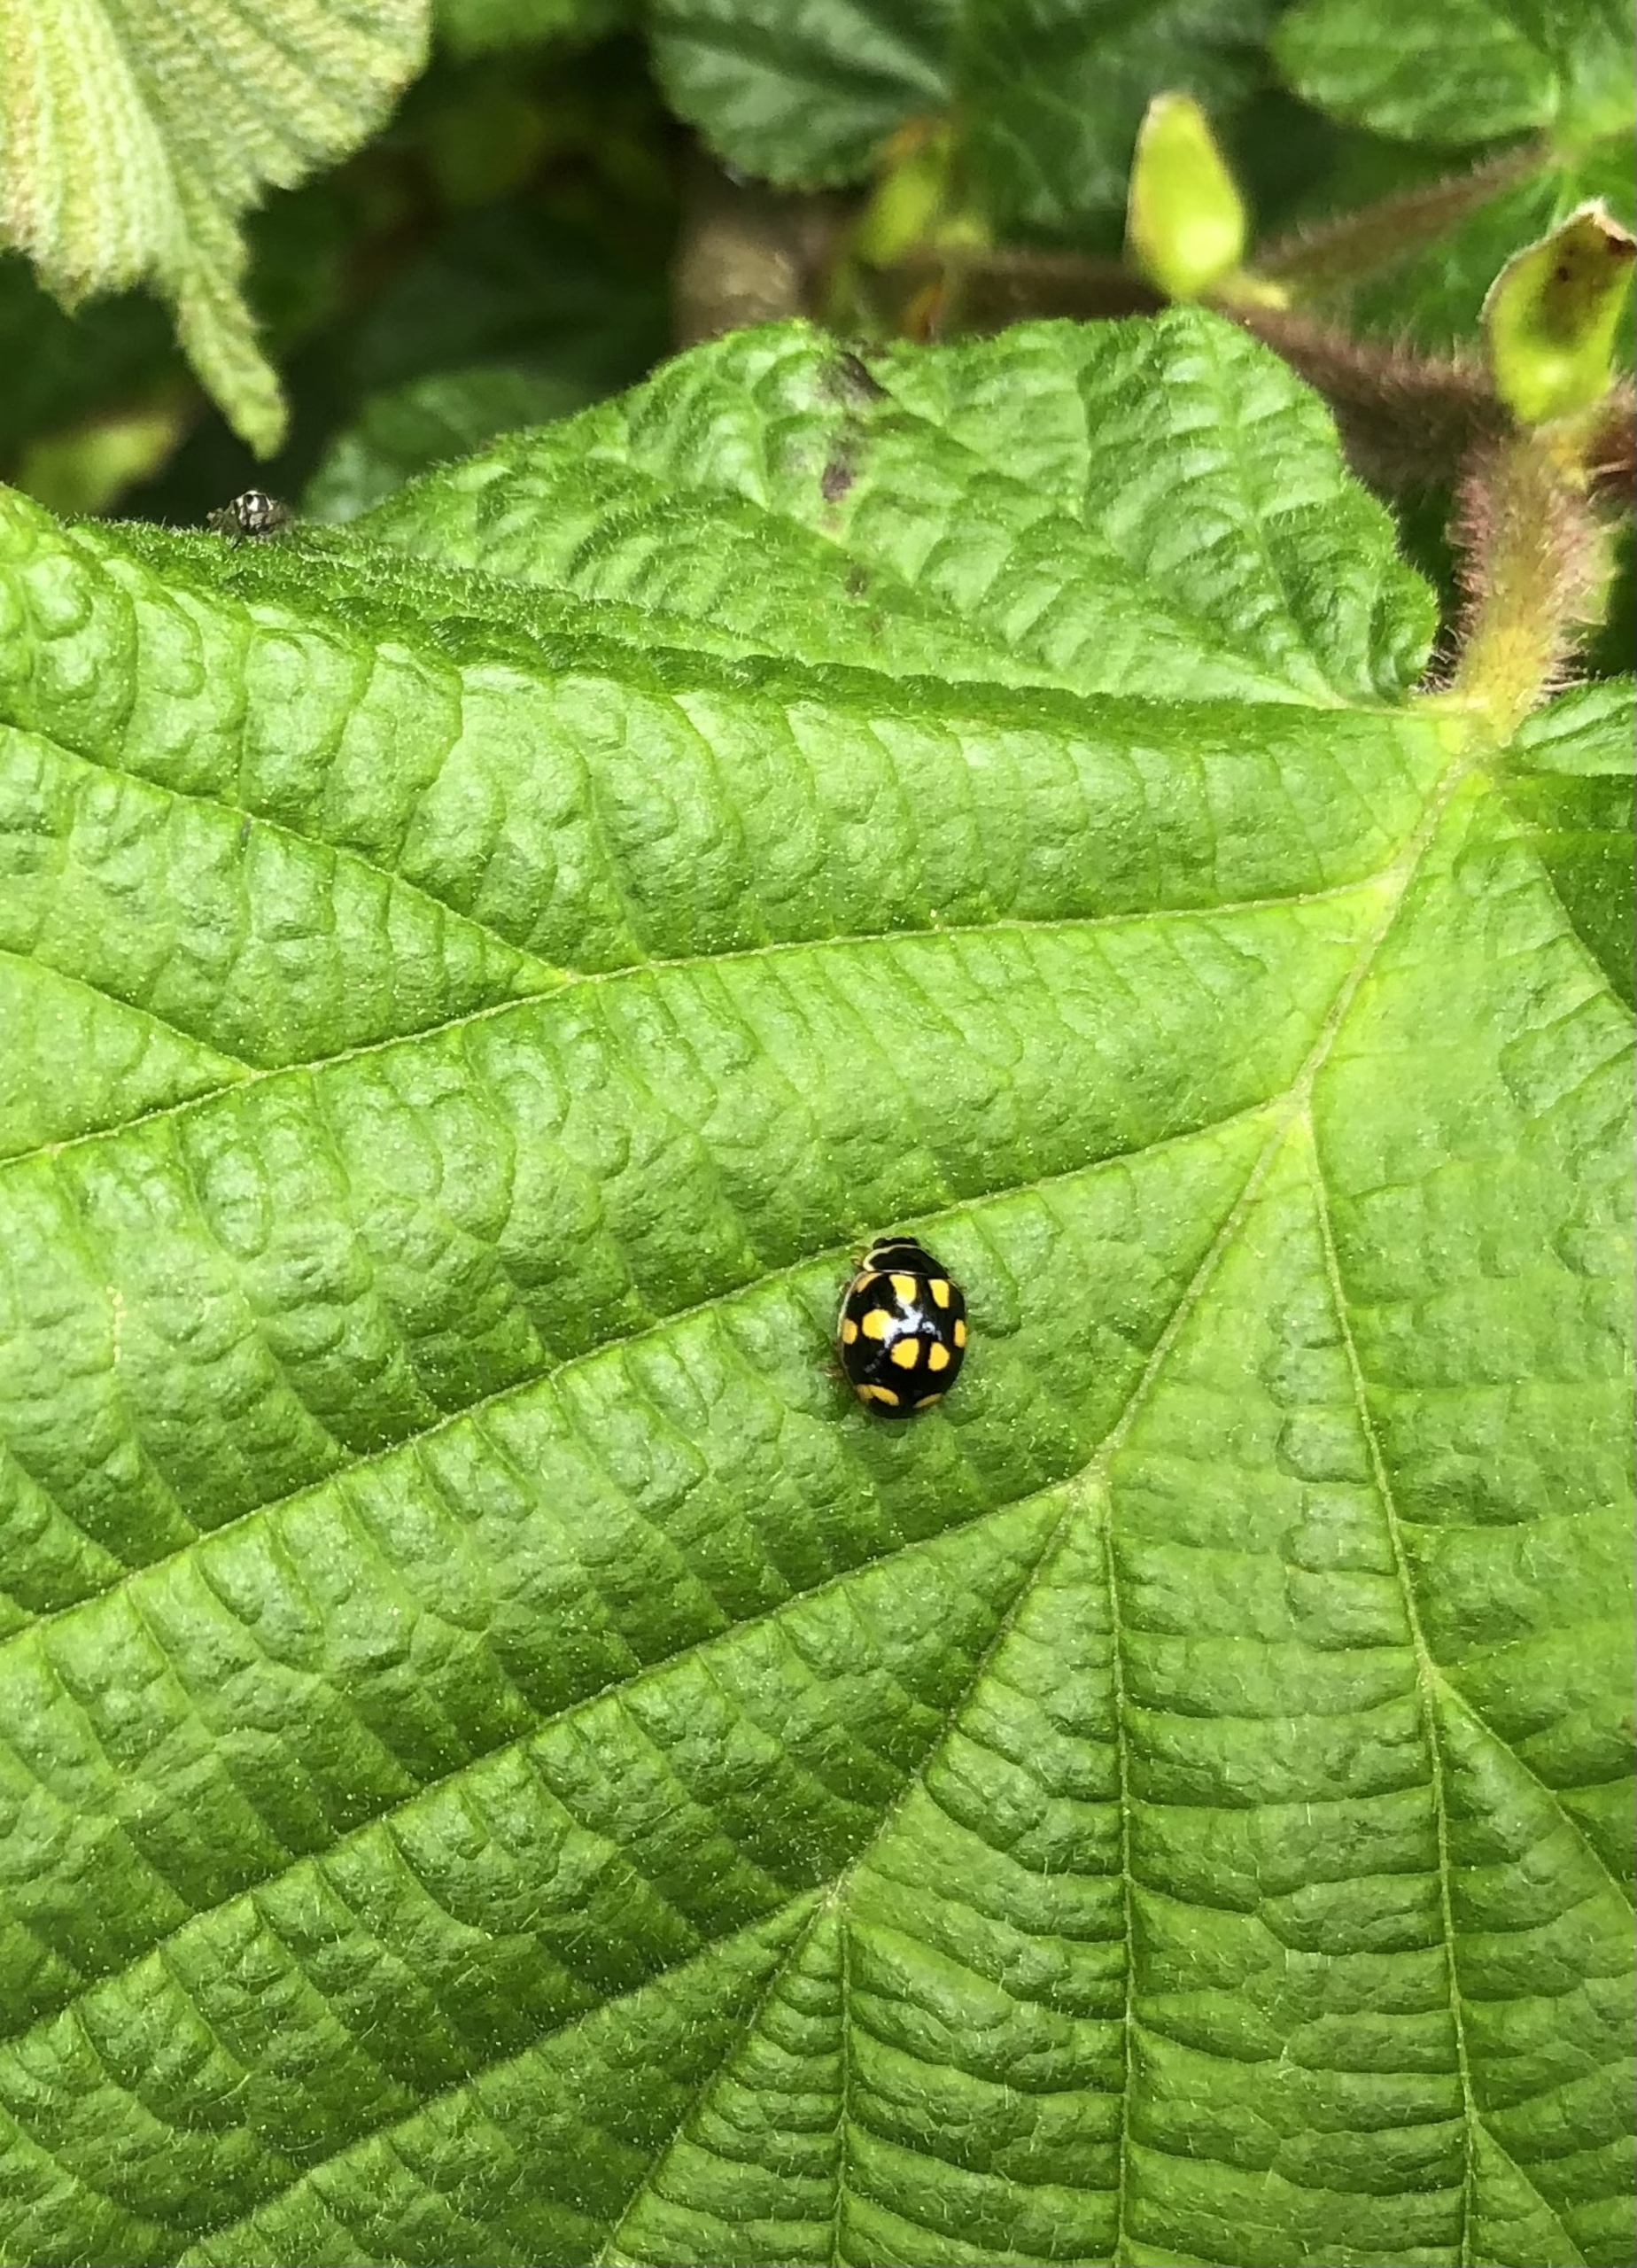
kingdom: Animalia
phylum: Arthropoda
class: Insecta
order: Coleoptera
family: Coccinellidae
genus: Propylaea
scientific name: Propylaea quatuordecimpunctata
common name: Skakbræt
